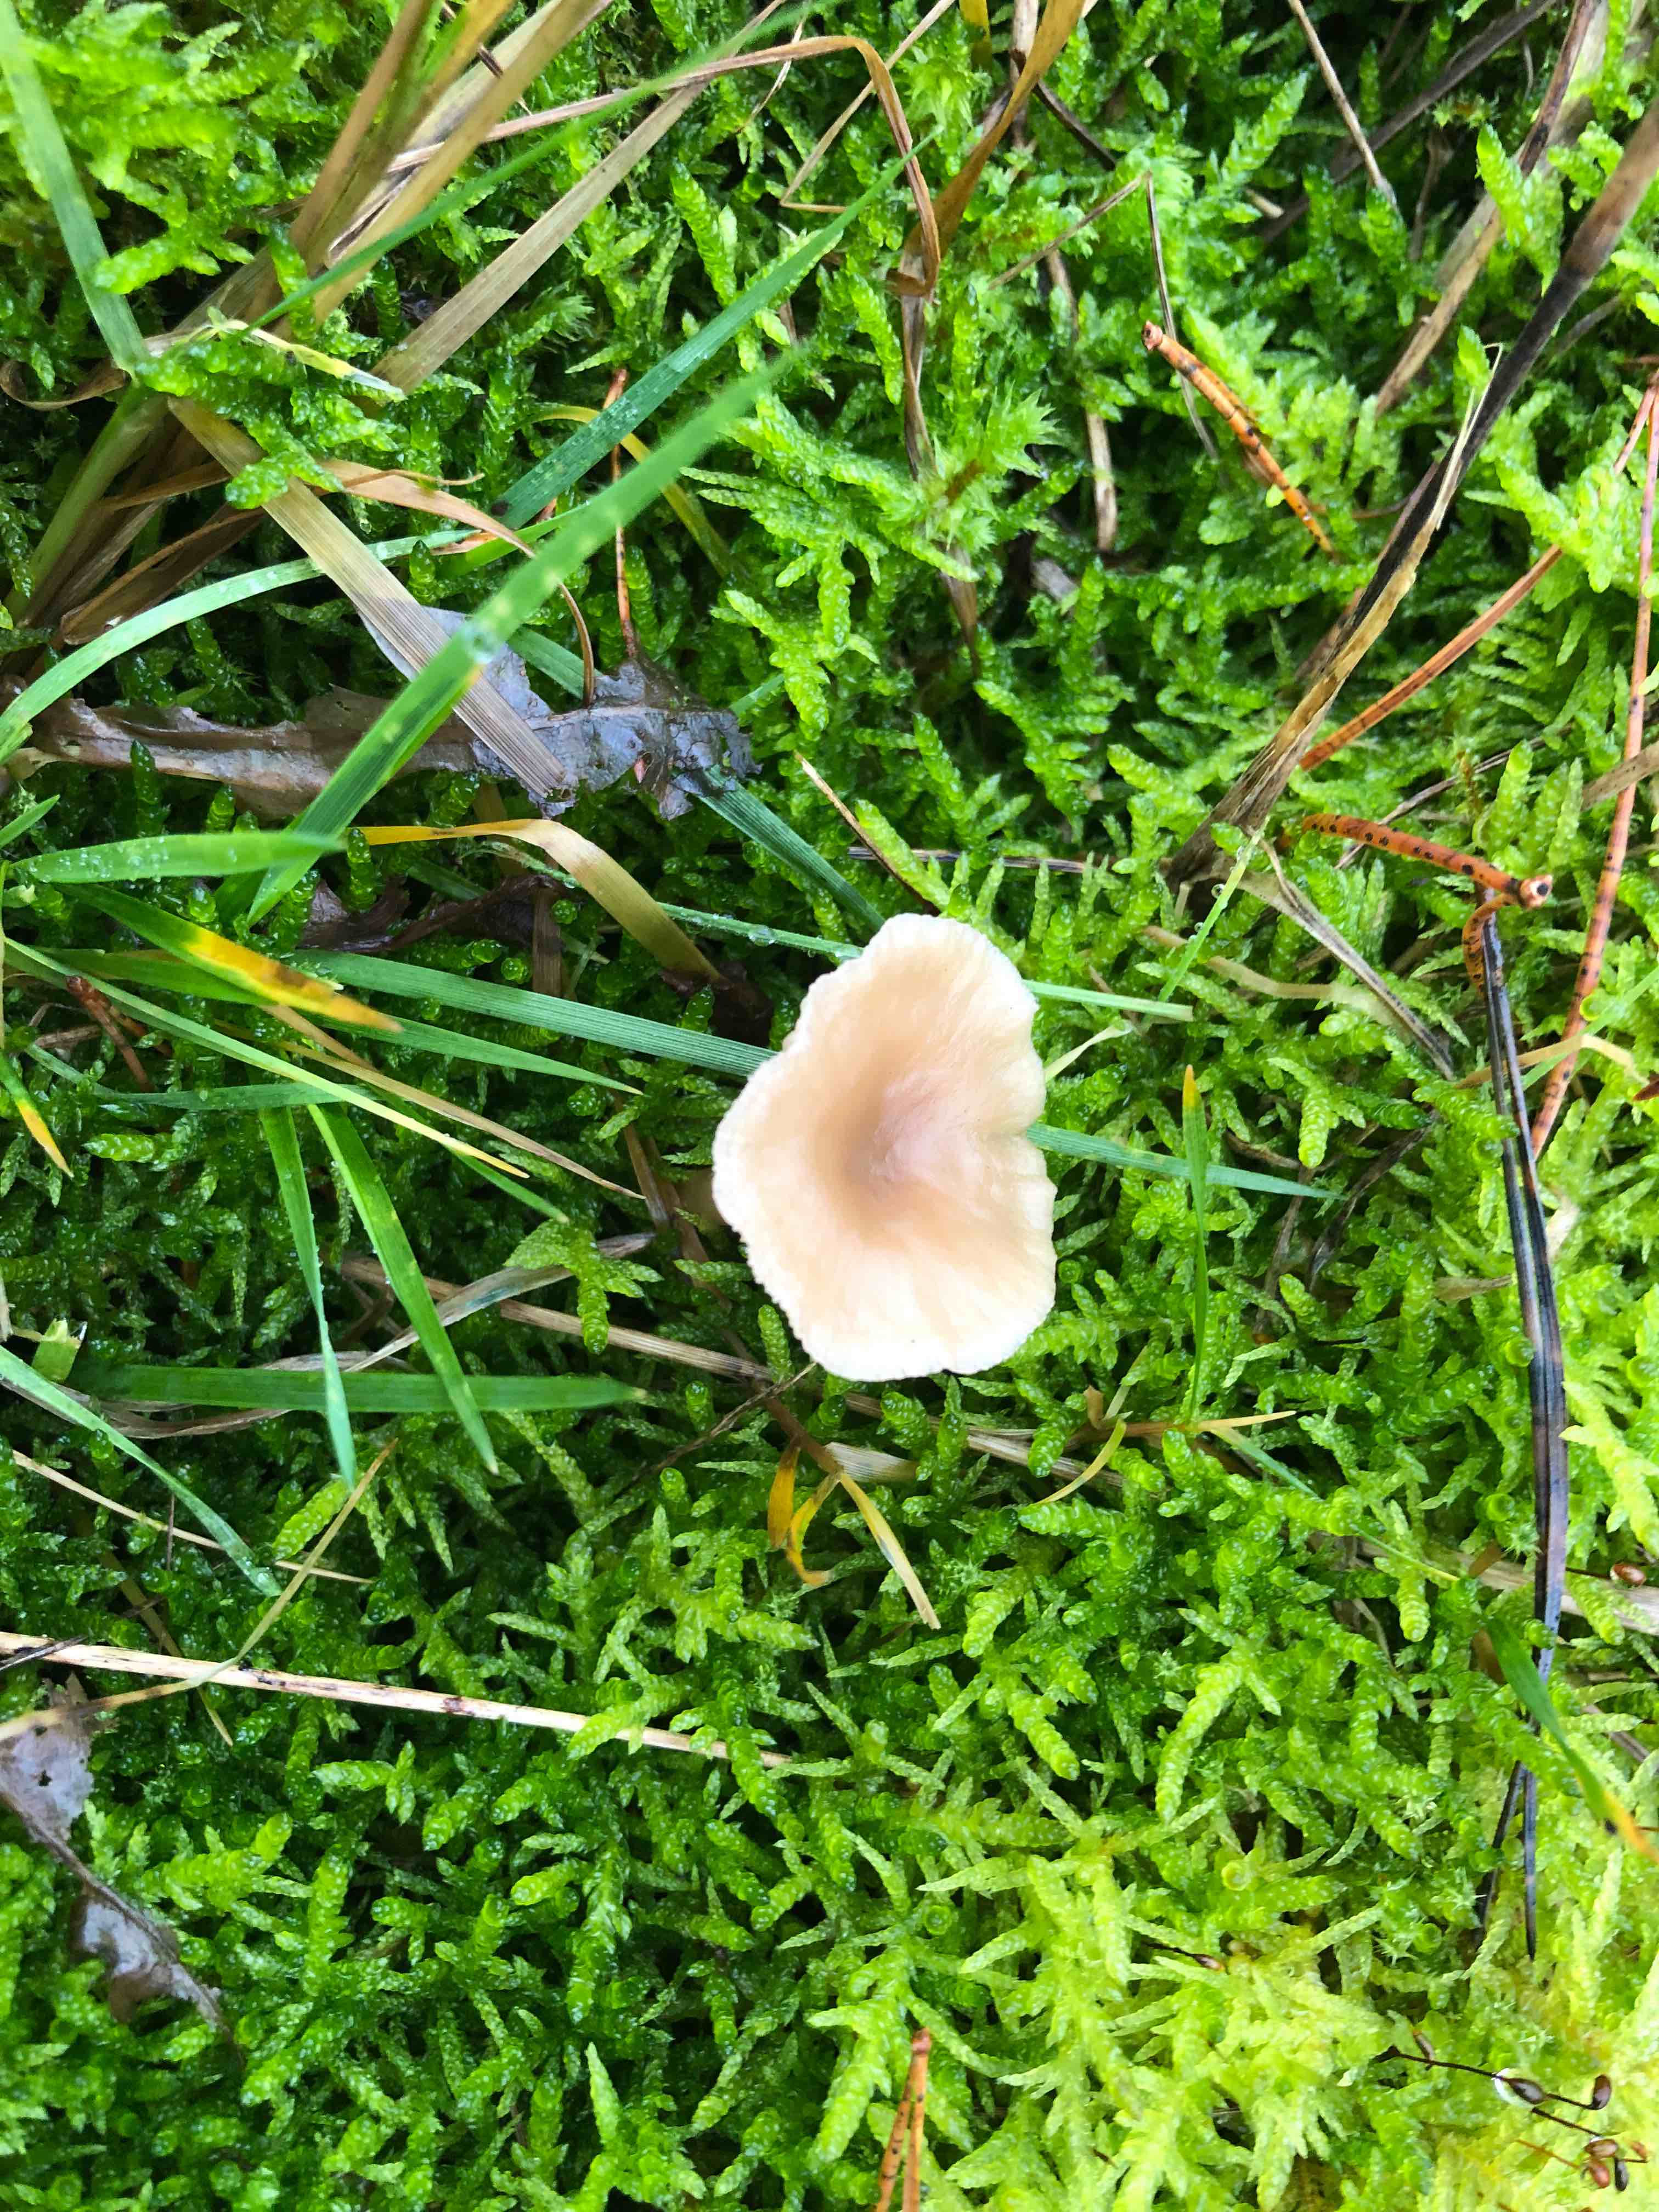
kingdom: Fungi
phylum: Basidiomycota
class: Agaricomycetes
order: Agaricales
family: Tricholomataceae
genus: Clitocybe
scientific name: Clitocybe fragrans
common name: vellugtende tragthat
